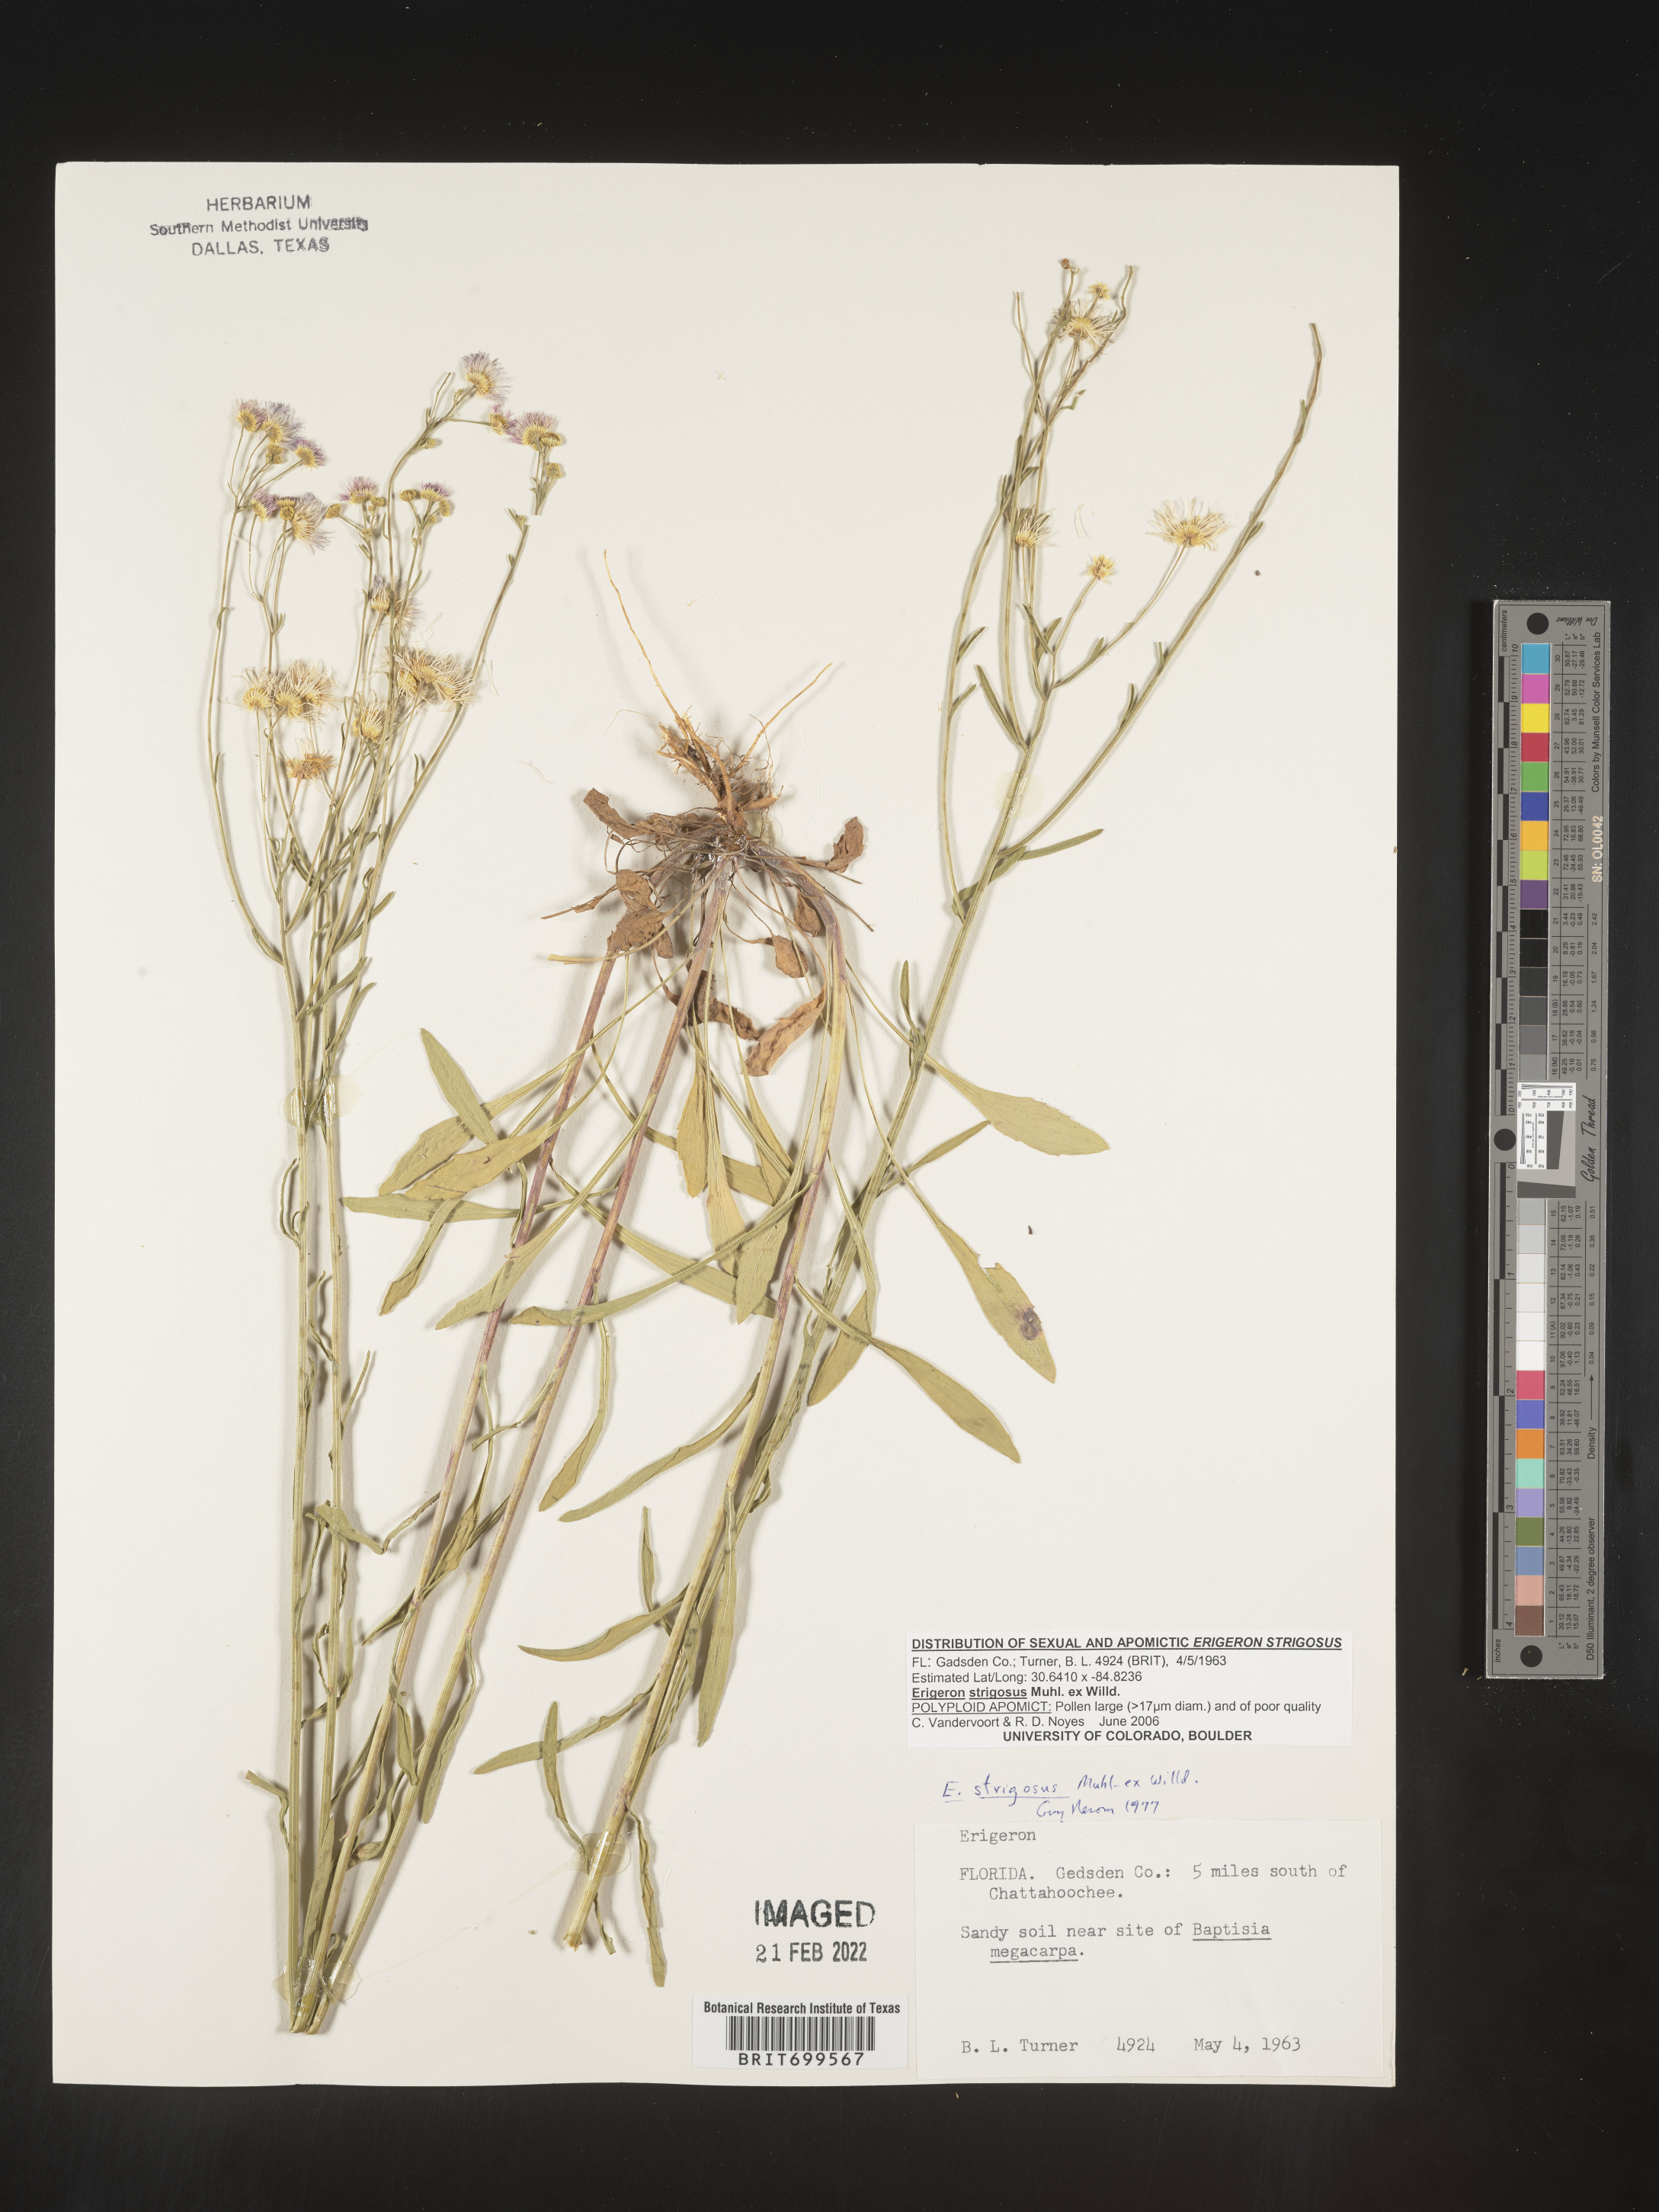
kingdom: Plantae
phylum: Tracheophyta
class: Magnoliopsida
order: Asterales
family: Asteraceae
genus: Erigeron
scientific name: Erigeron strigosus
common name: Common eastern fleabane
